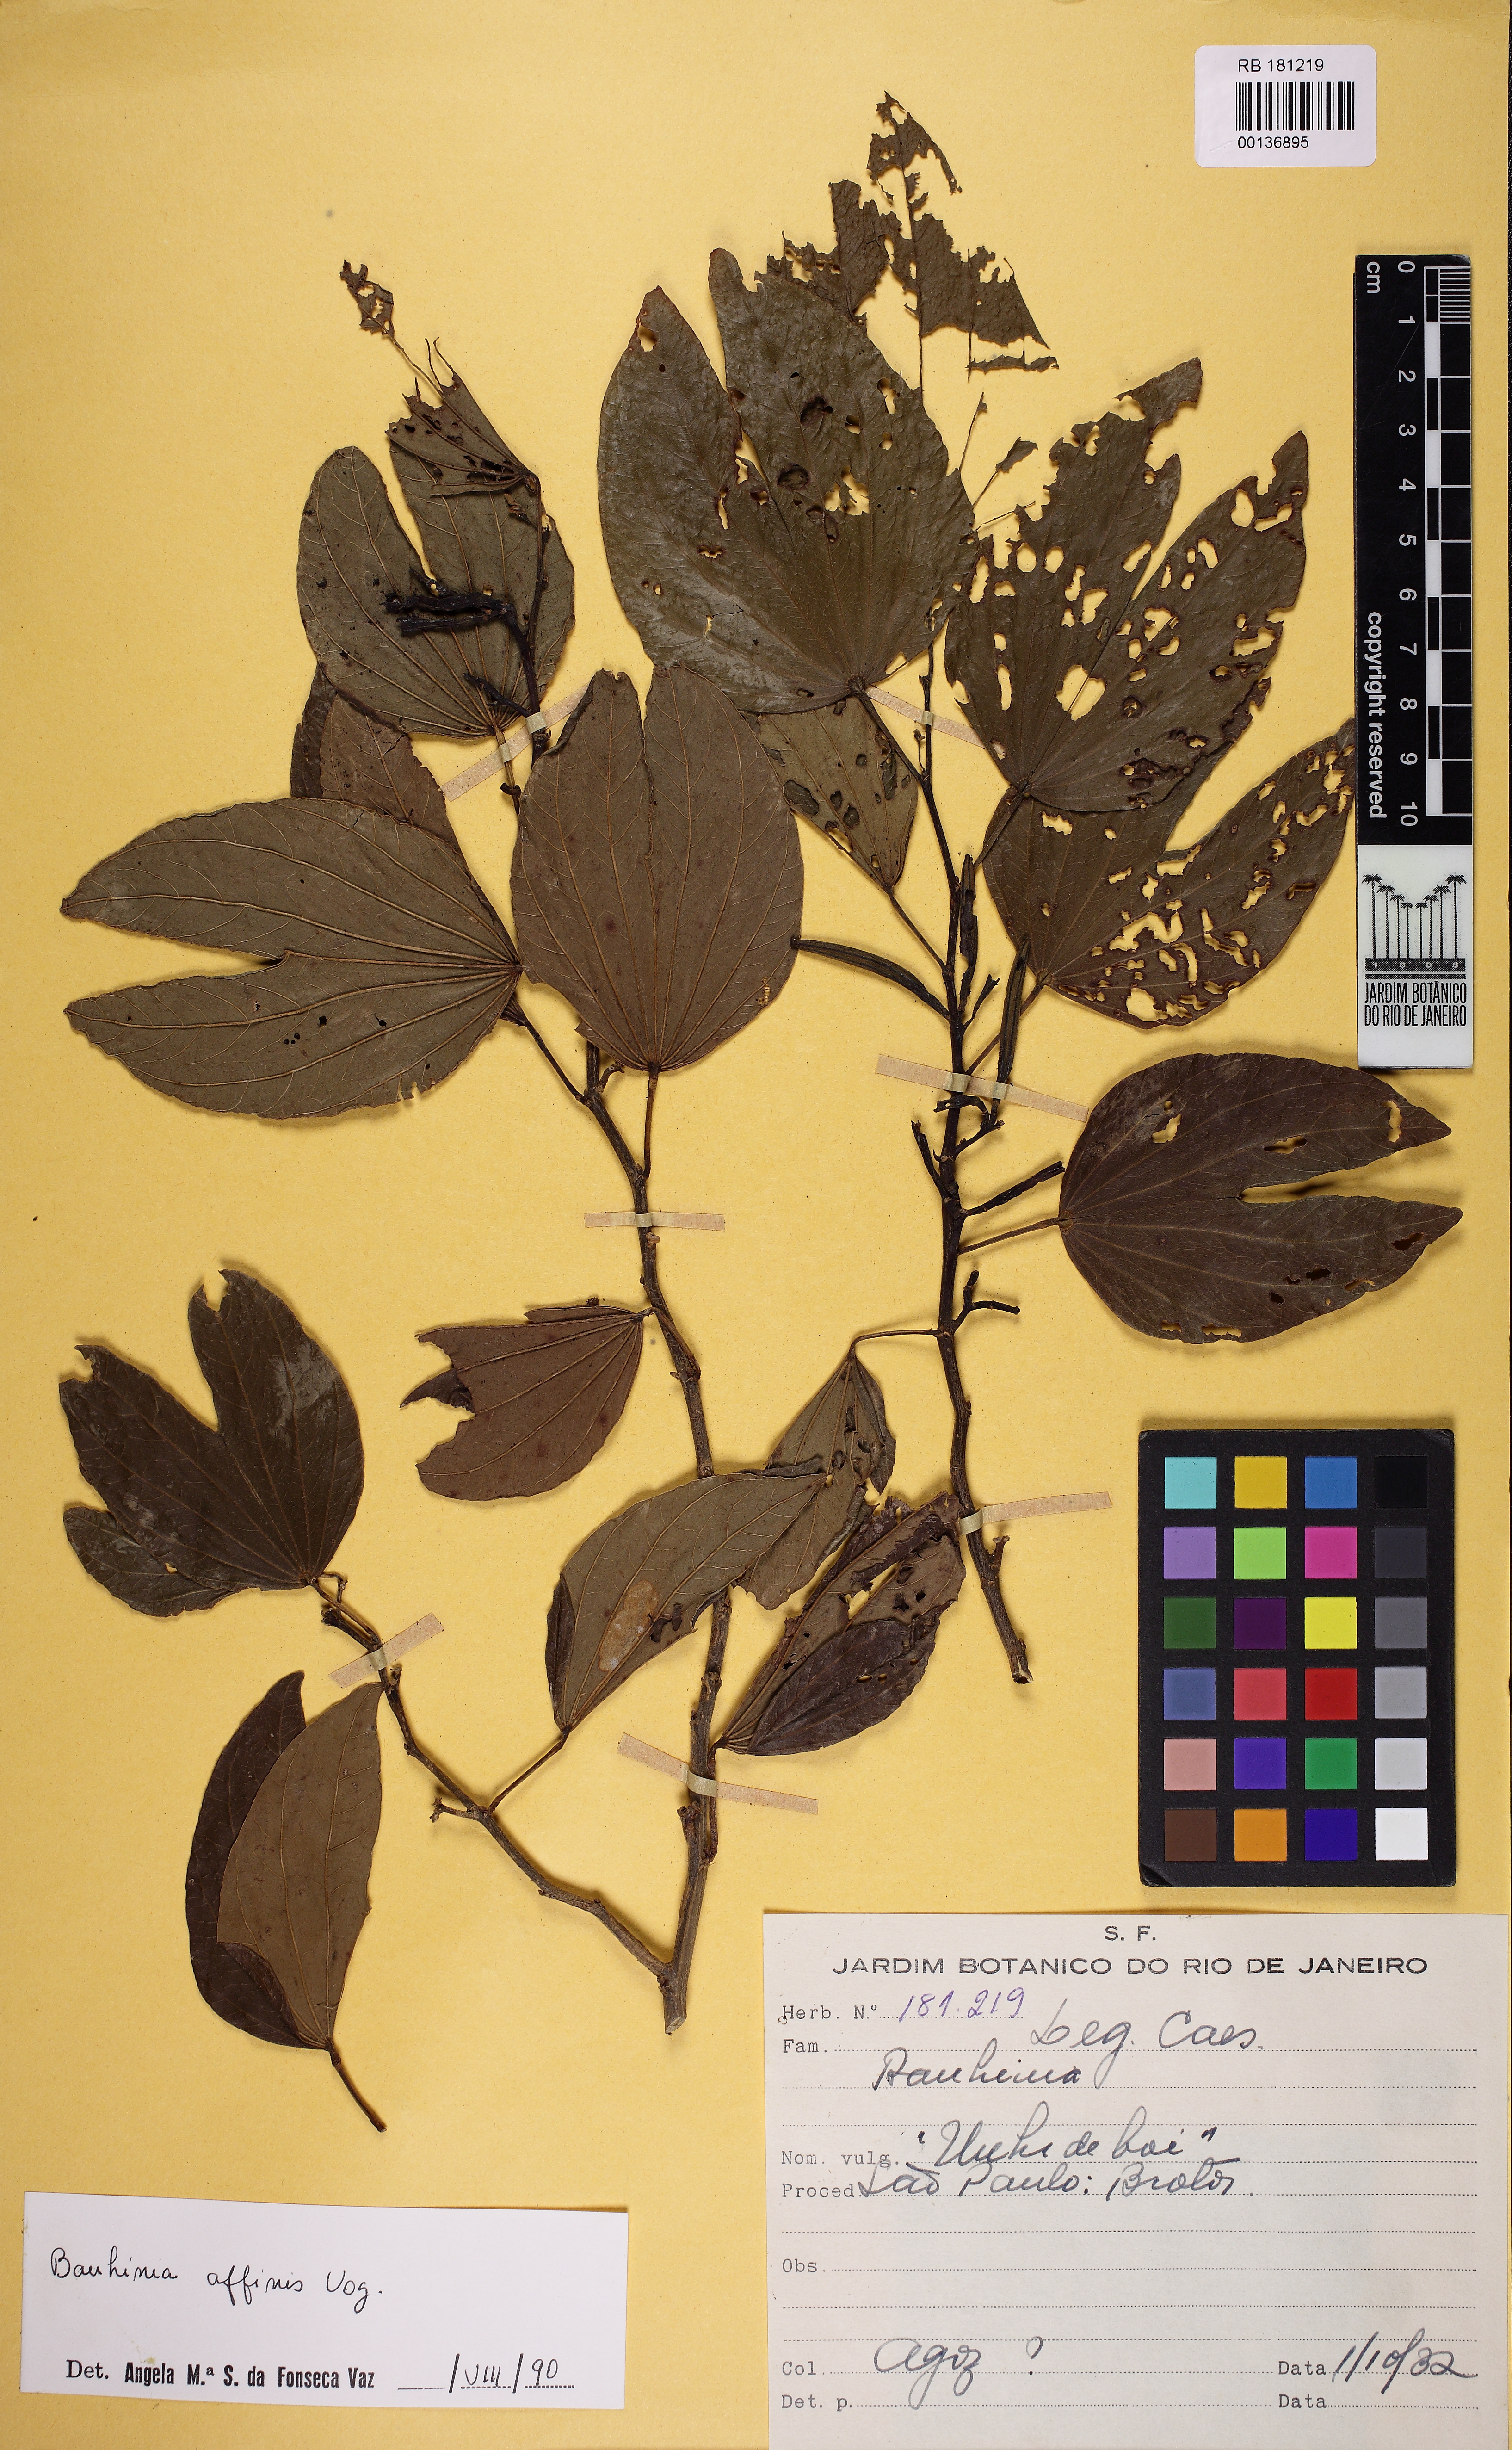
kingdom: Plantae
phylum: Tracheophyta
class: Magnoliopsida
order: Fabales
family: Fabaceae
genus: Bauhinia
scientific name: Bauhinia affinis
